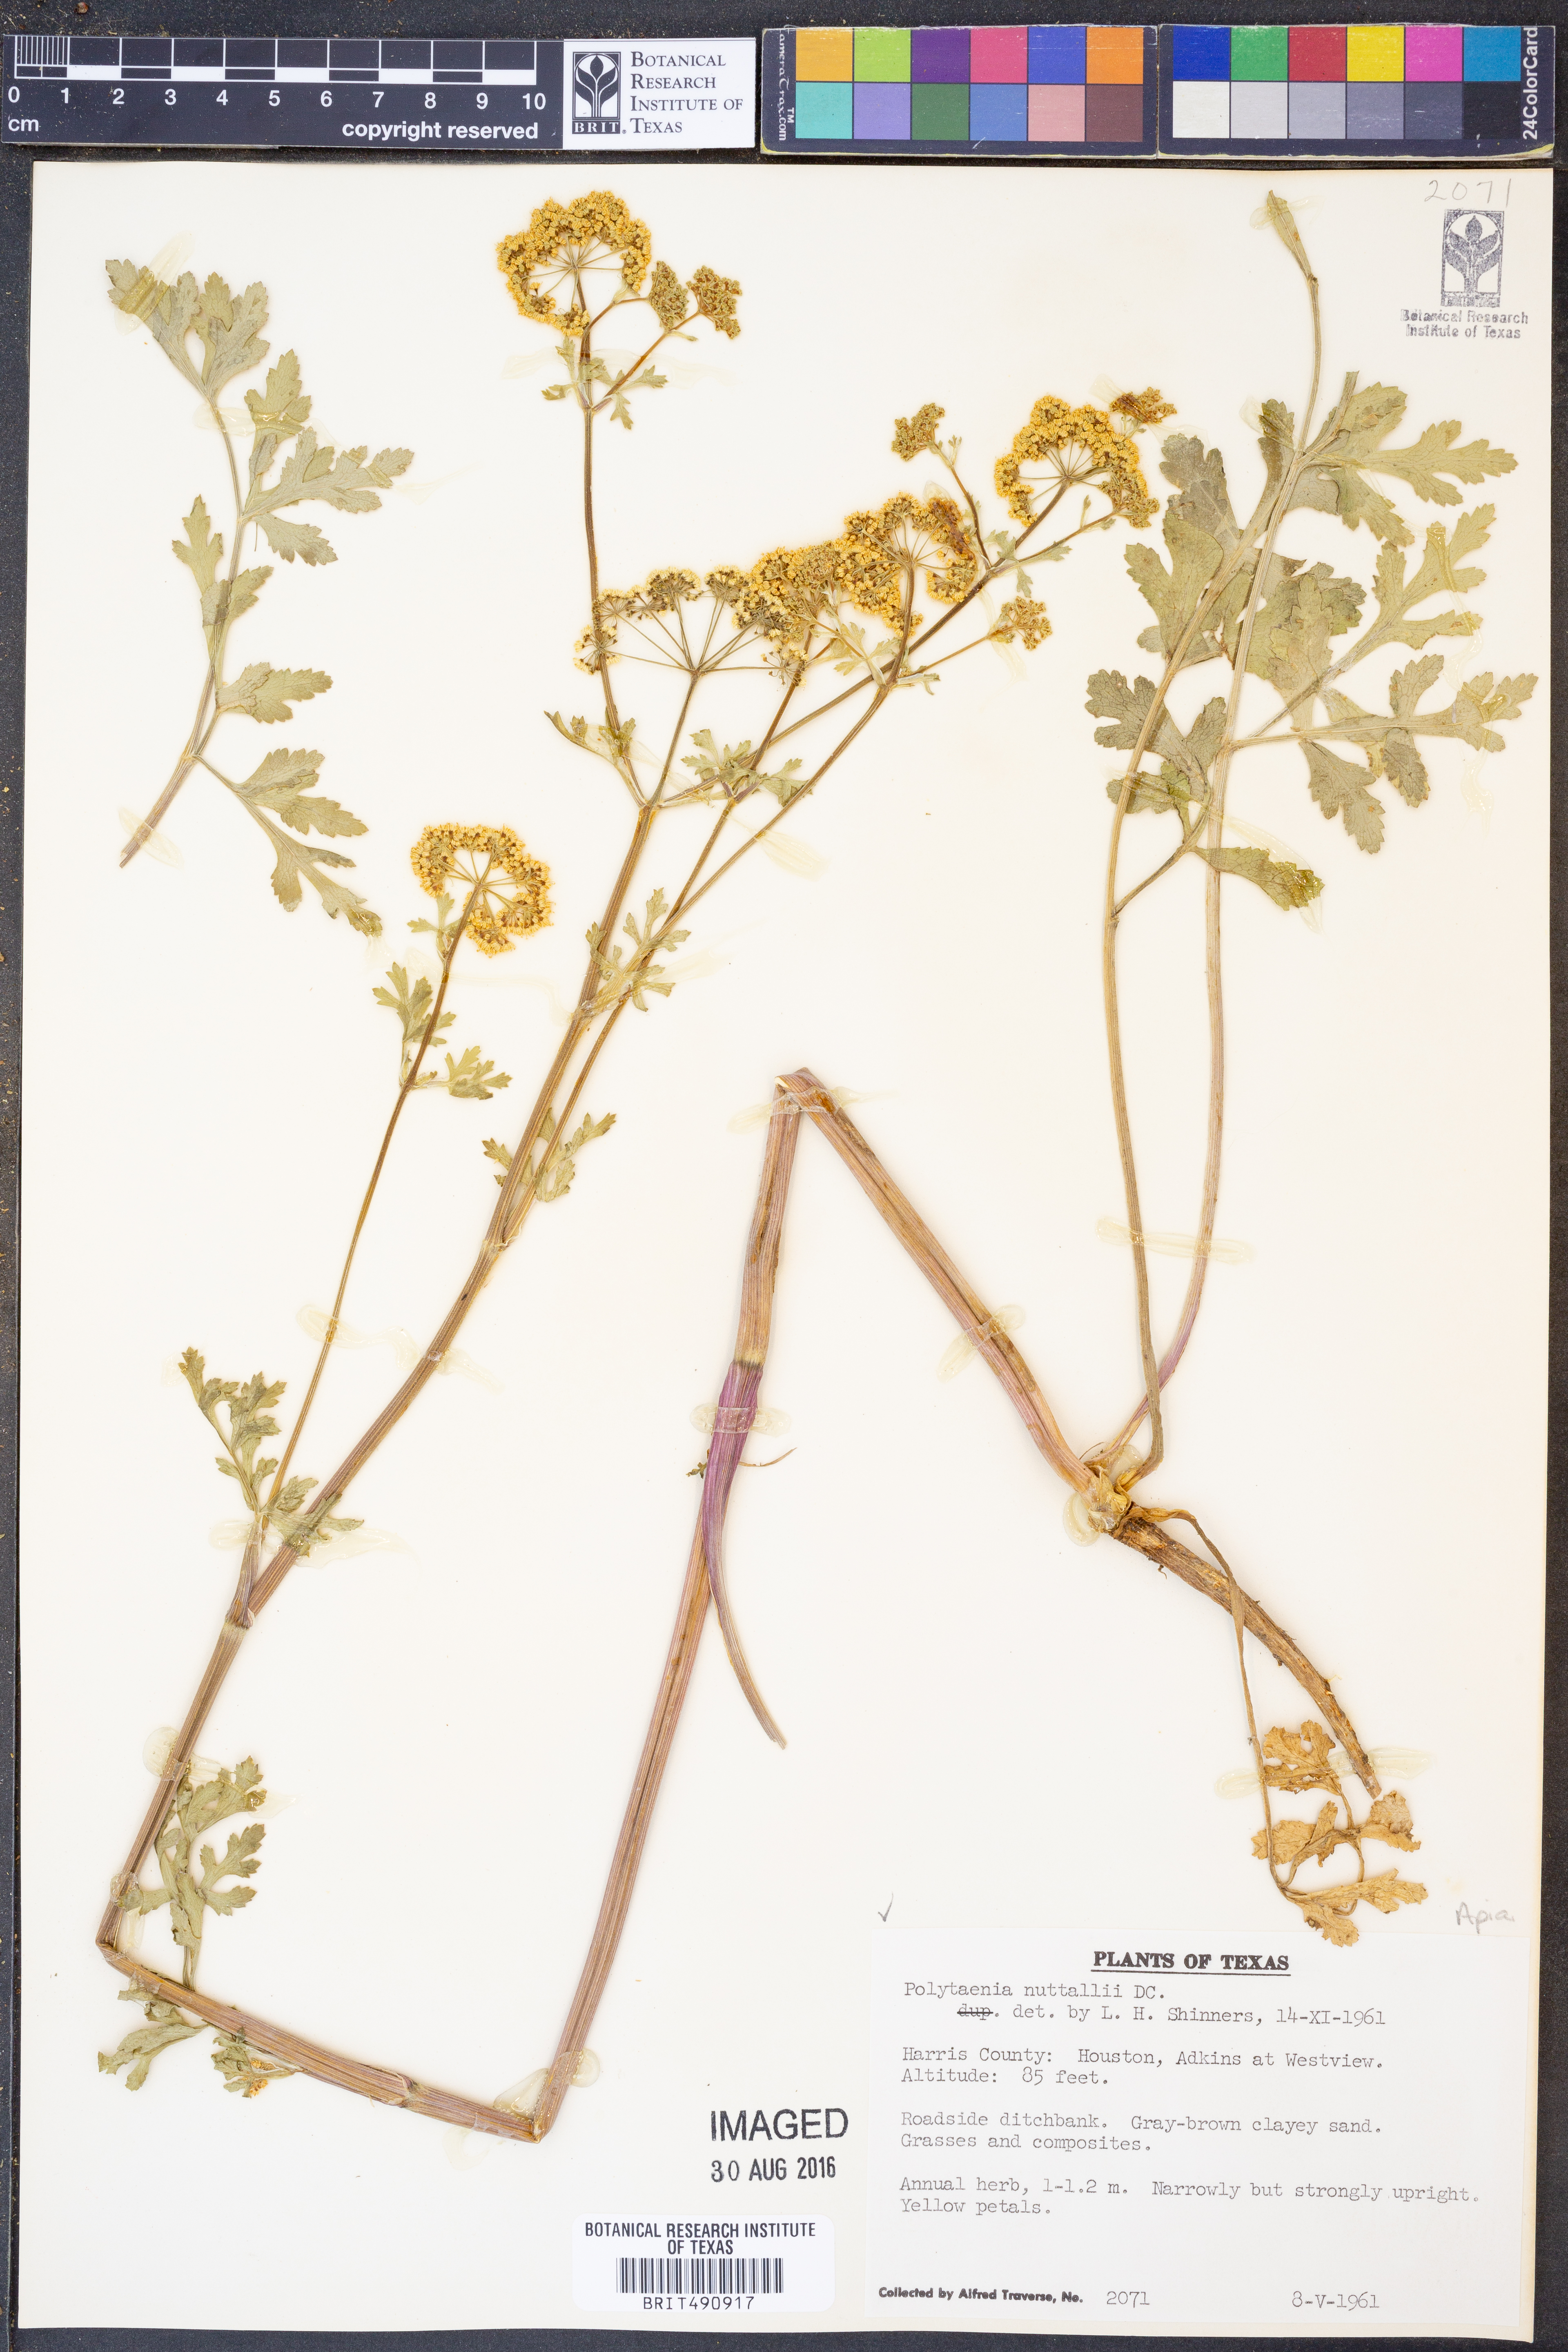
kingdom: Plantae
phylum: Tracheophyta
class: Magnoliopsida
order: Apiales
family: Apiaceae
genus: Polytaenia
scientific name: Polytaenia nuttallii
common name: Prairie-parsley
